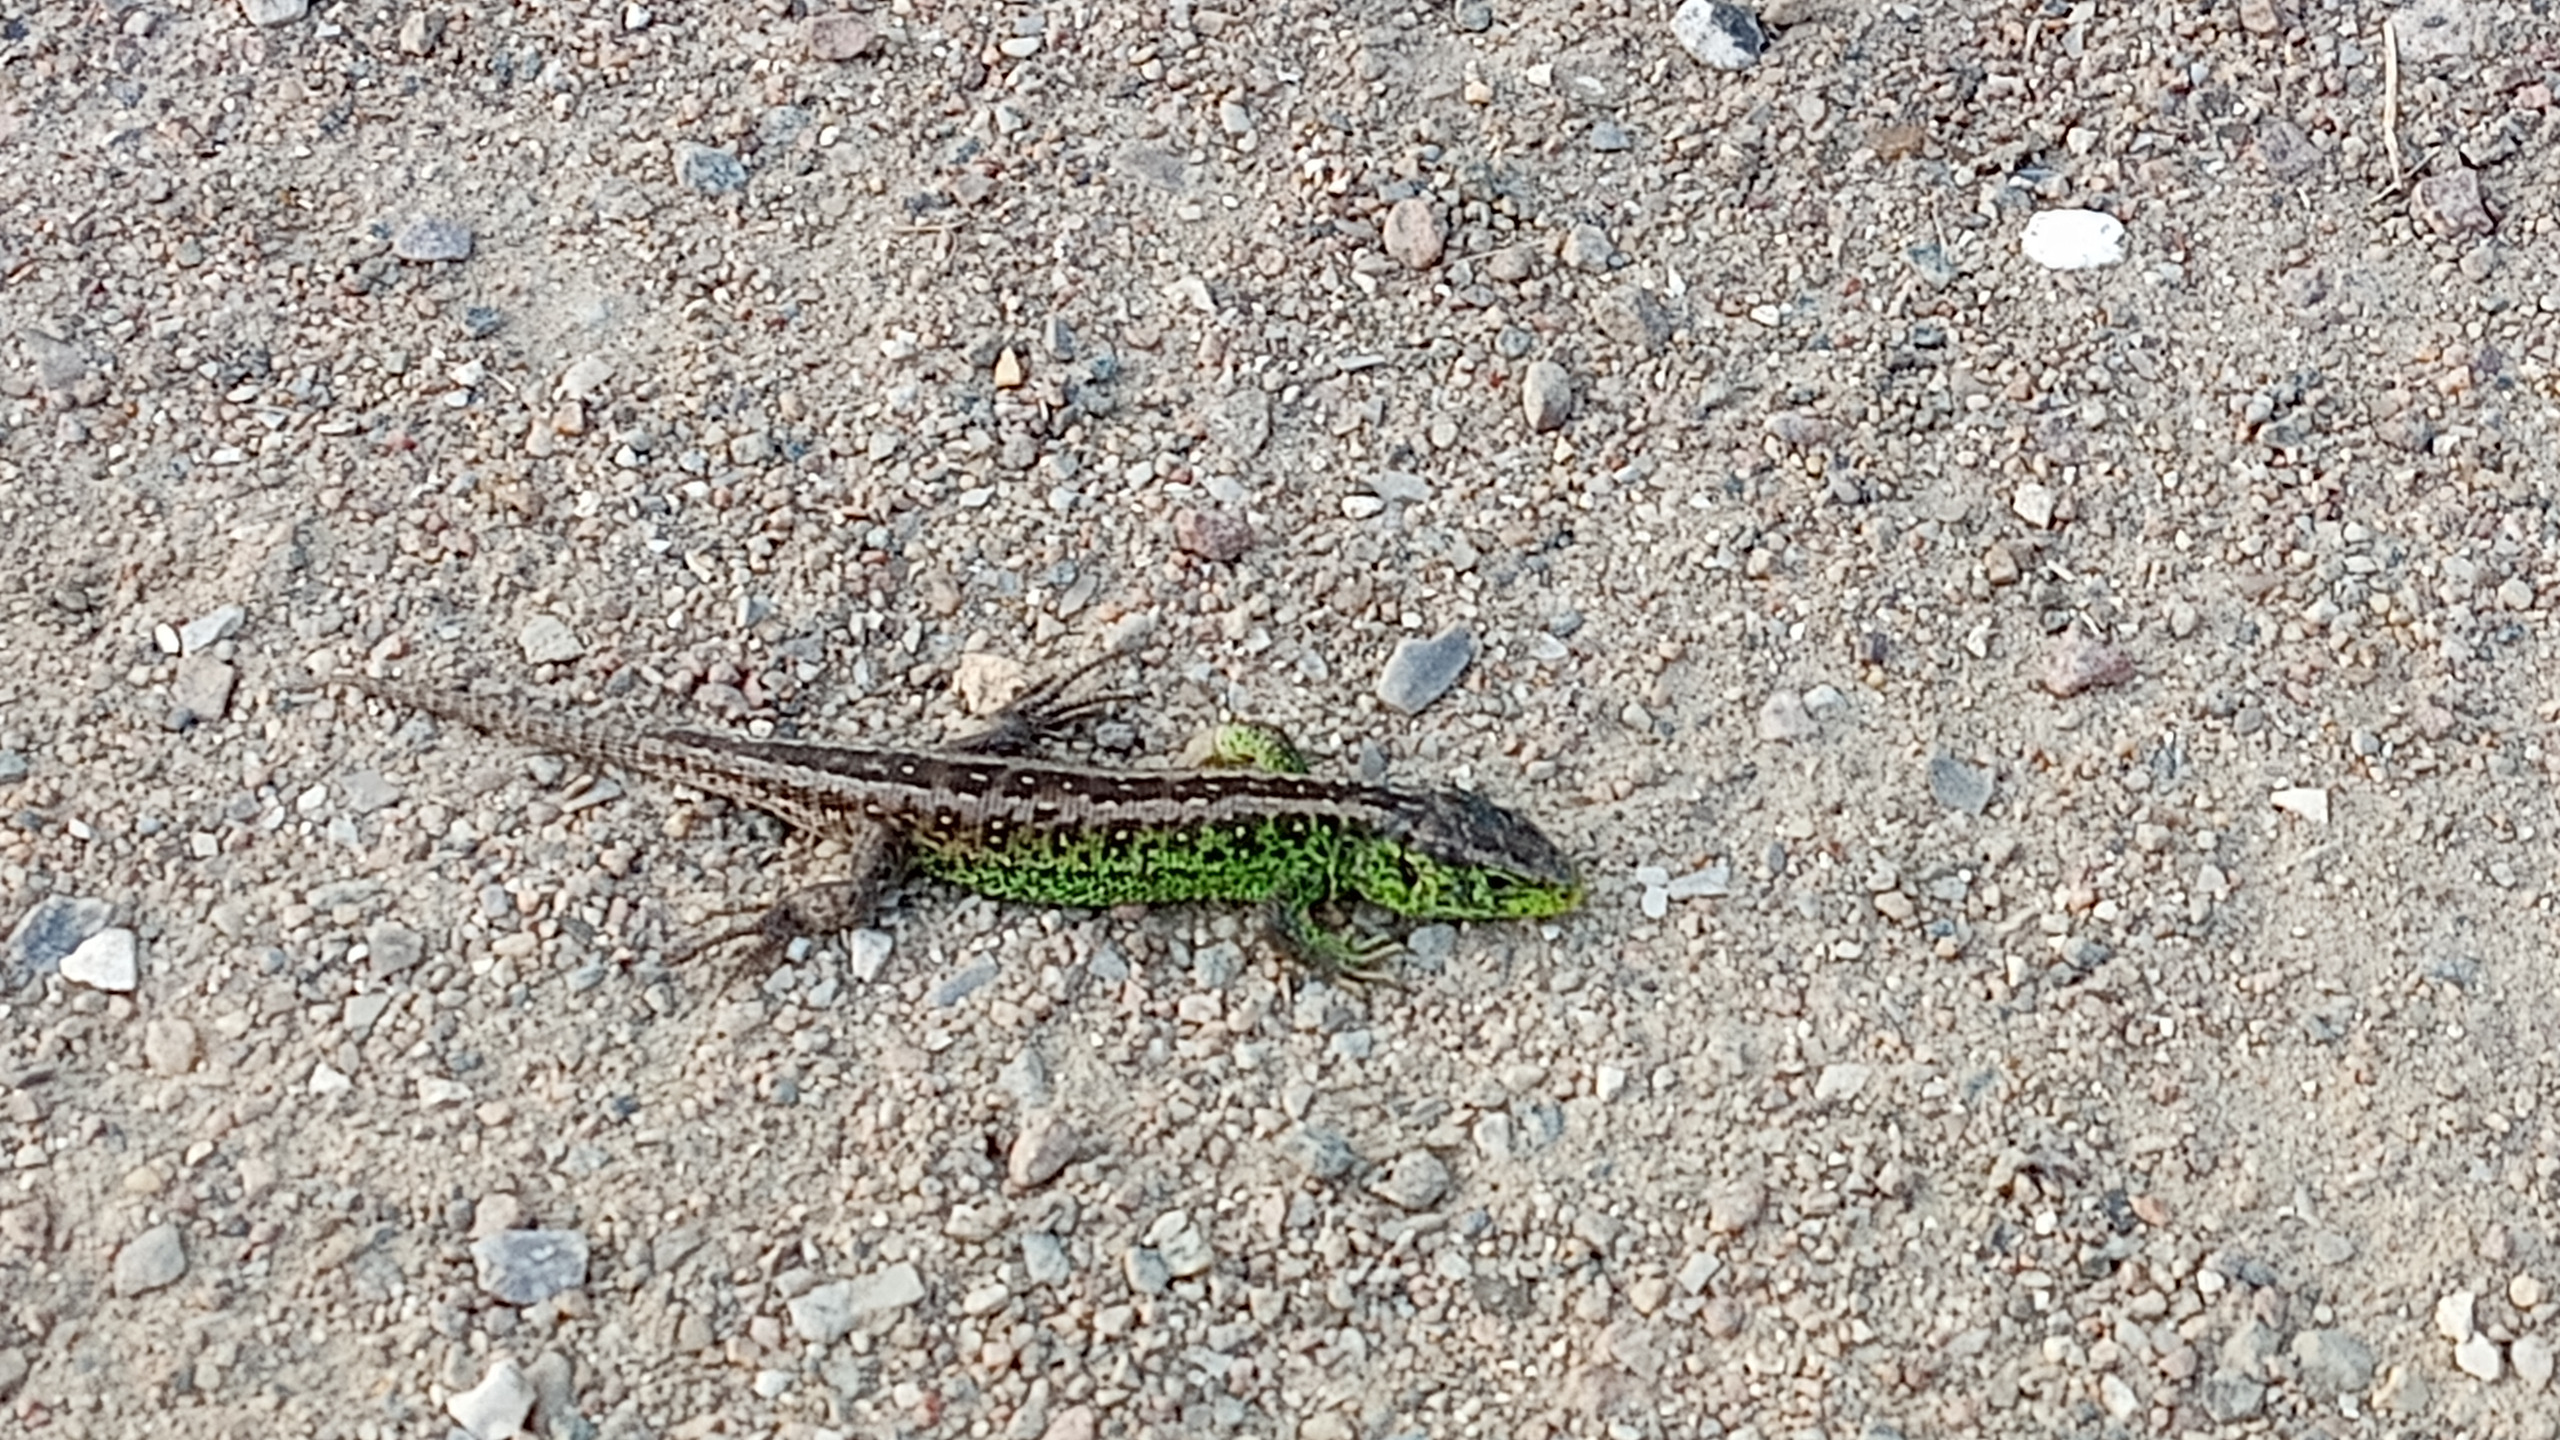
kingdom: Animalia
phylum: Chordata
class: Squamata
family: Lacertidae
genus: Lacerta
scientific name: Lacerta agilis
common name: Markfirben
